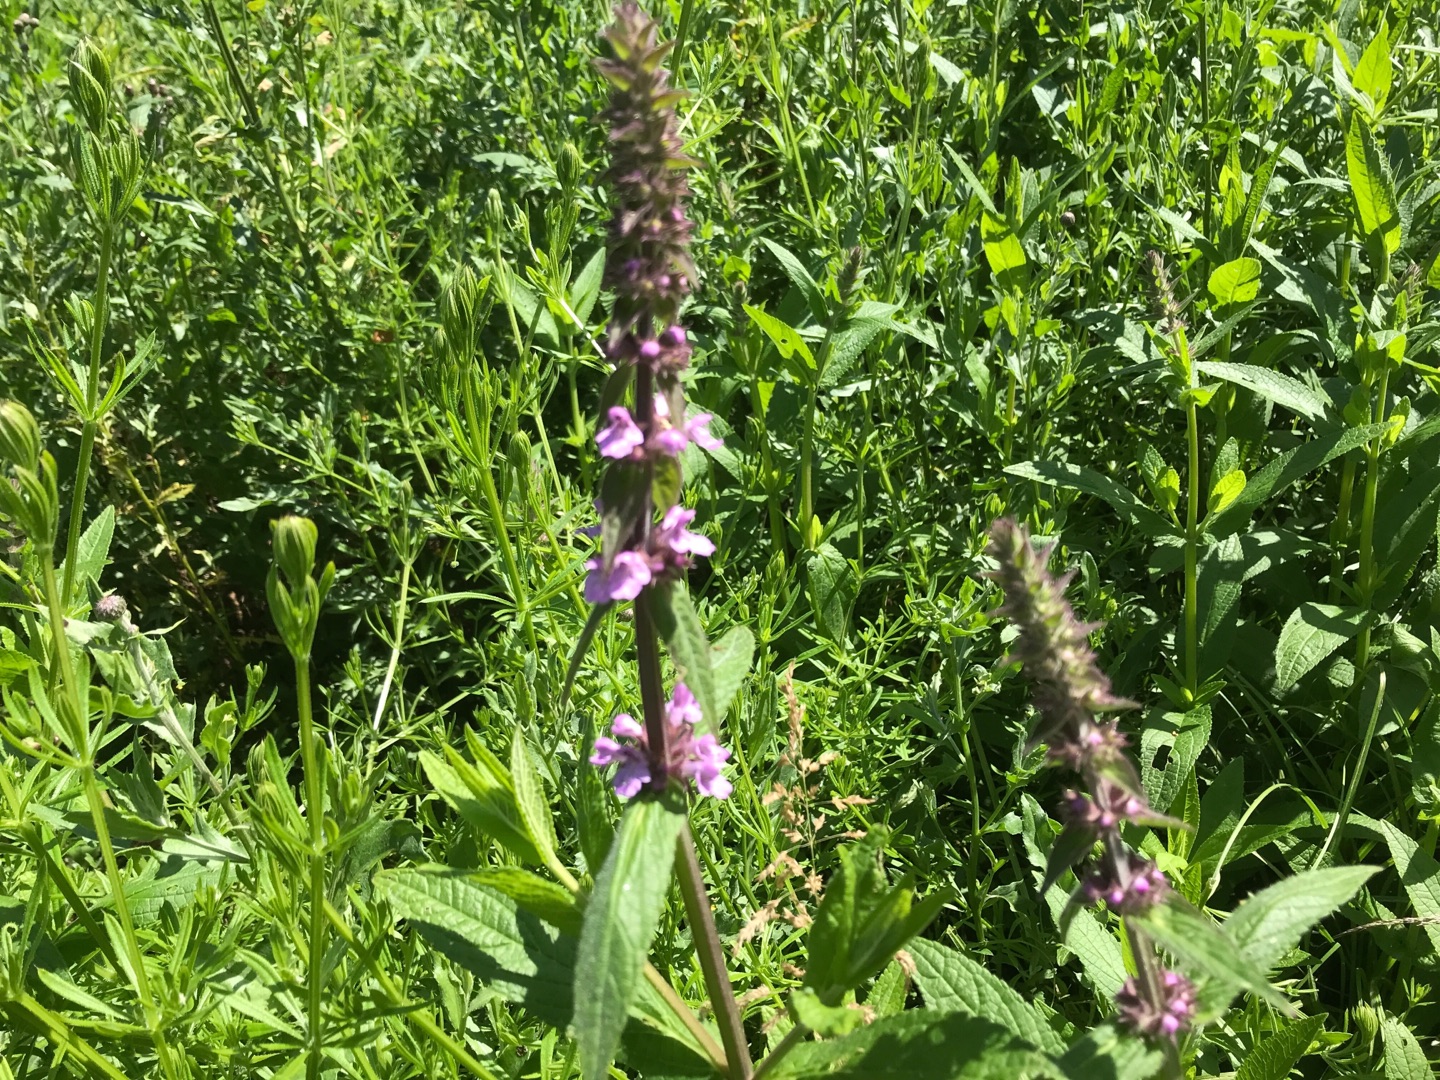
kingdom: Plantae
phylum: Tracheophyta
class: Magnoliopsida
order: Lamiales
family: Lamiaceae
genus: Stachys
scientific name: Stachys palustris
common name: Kær-galtetand
